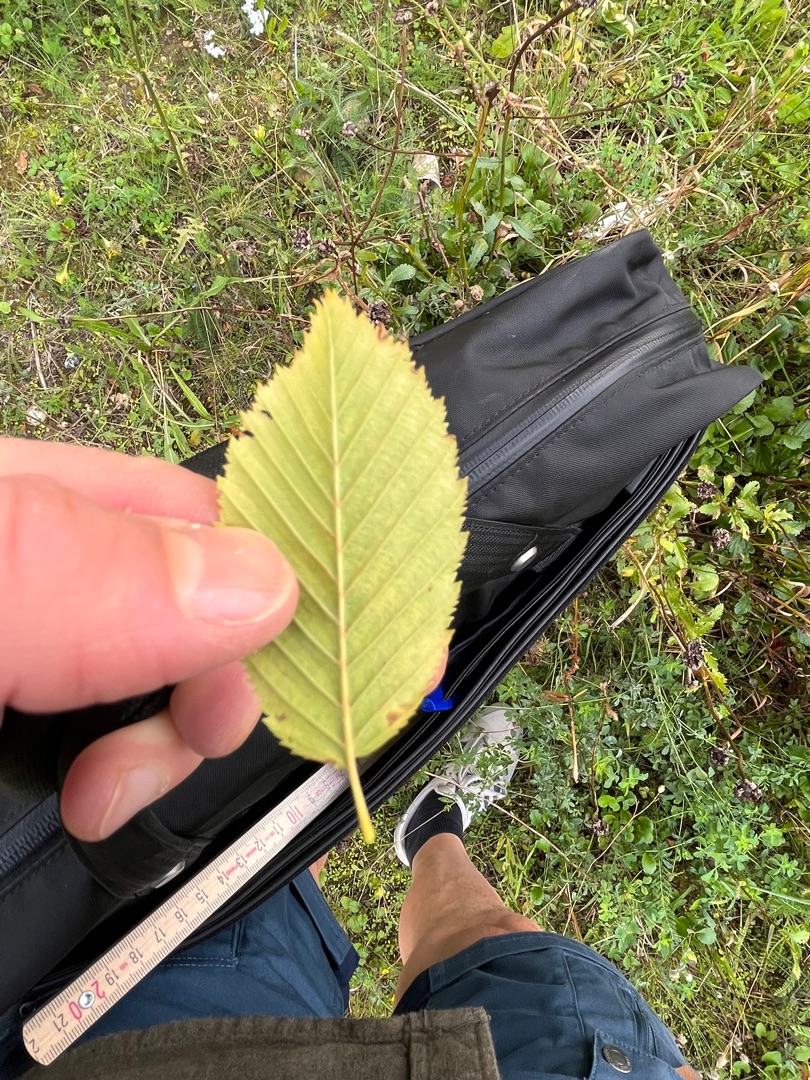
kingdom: Plantae
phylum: Tracheophyta
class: Magnoliopsida
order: Fagales
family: Betulaceae
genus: Carpinus
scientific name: Carpinus betulus
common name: Avnbøg
